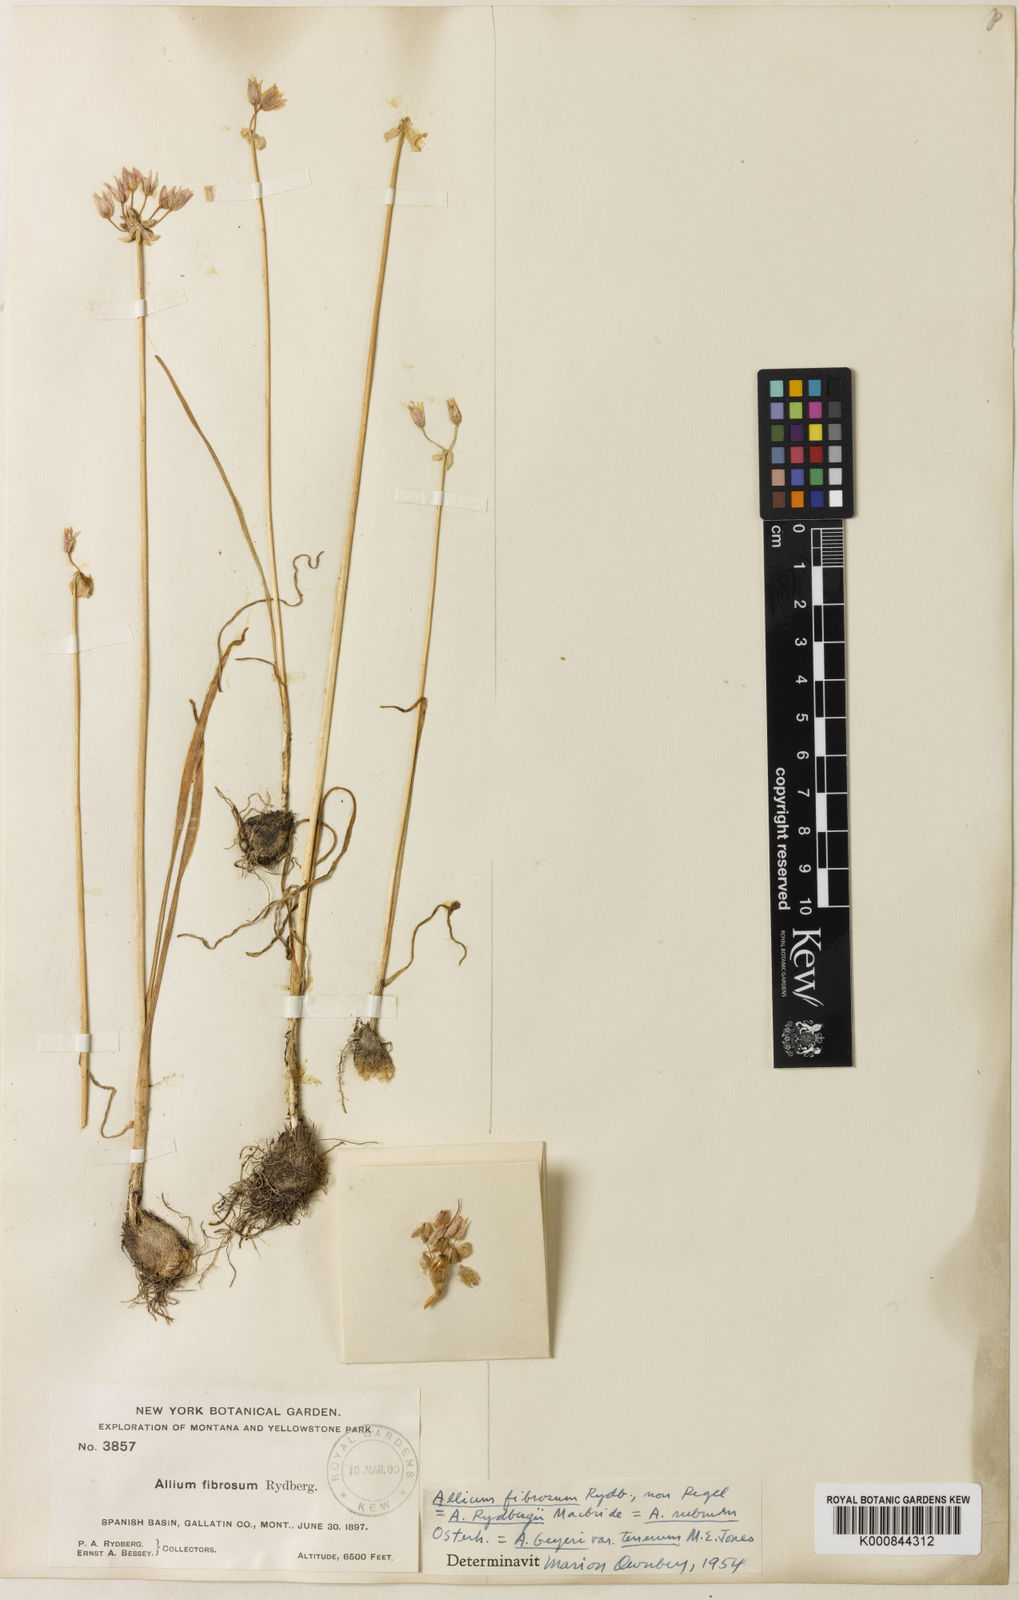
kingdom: Plantae
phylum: Tracheophyta
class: Liliopsida
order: Asparagales
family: Amaryllidaceae
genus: Allium
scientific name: Allium geyeri
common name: Geyer's onion
